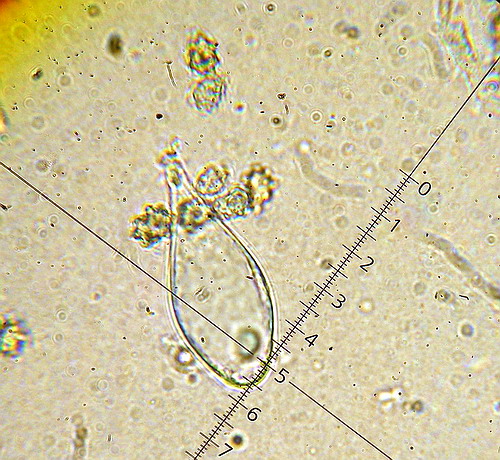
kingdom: Fungi
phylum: Basidiomycota
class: Agaricomycetes
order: Agaricales
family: Inocybaceae
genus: Inocybe
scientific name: Inocybe lanuginosa
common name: uldskællet trævlhat
